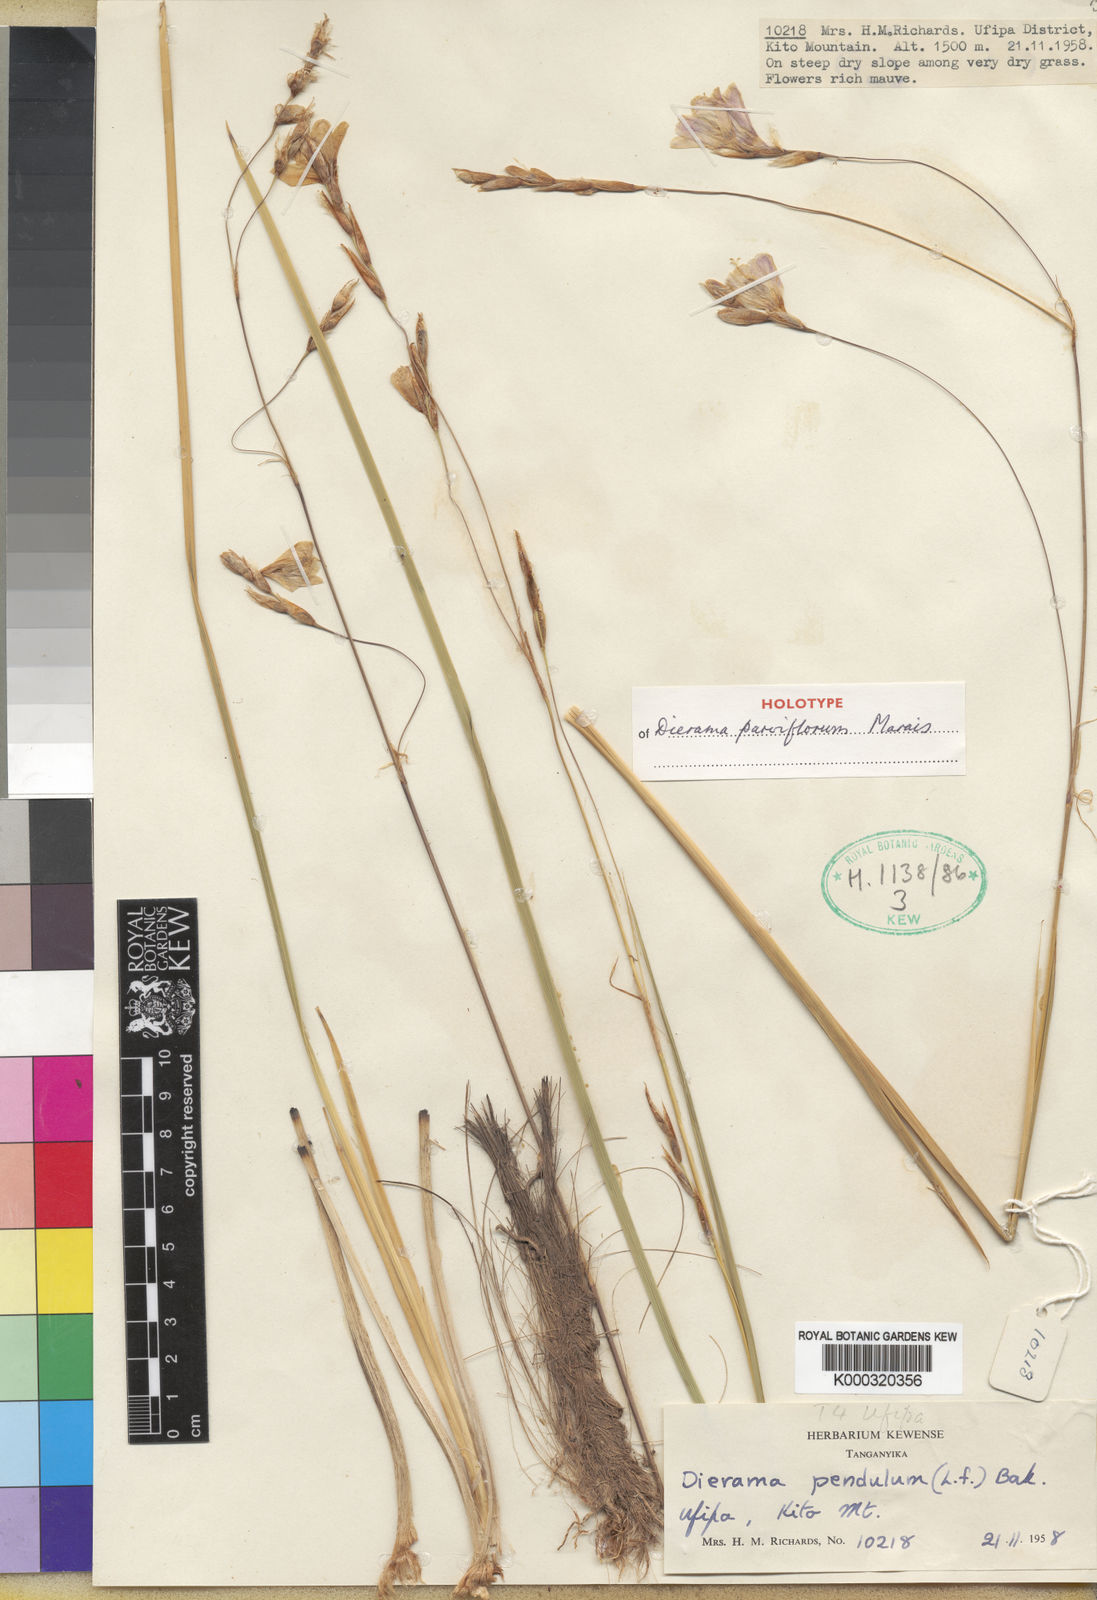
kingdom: Plantae
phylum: Tracheophyta
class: Liliopsida
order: Asparagales
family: Iridaceae
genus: Dierama
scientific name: Dierama parviflorum
